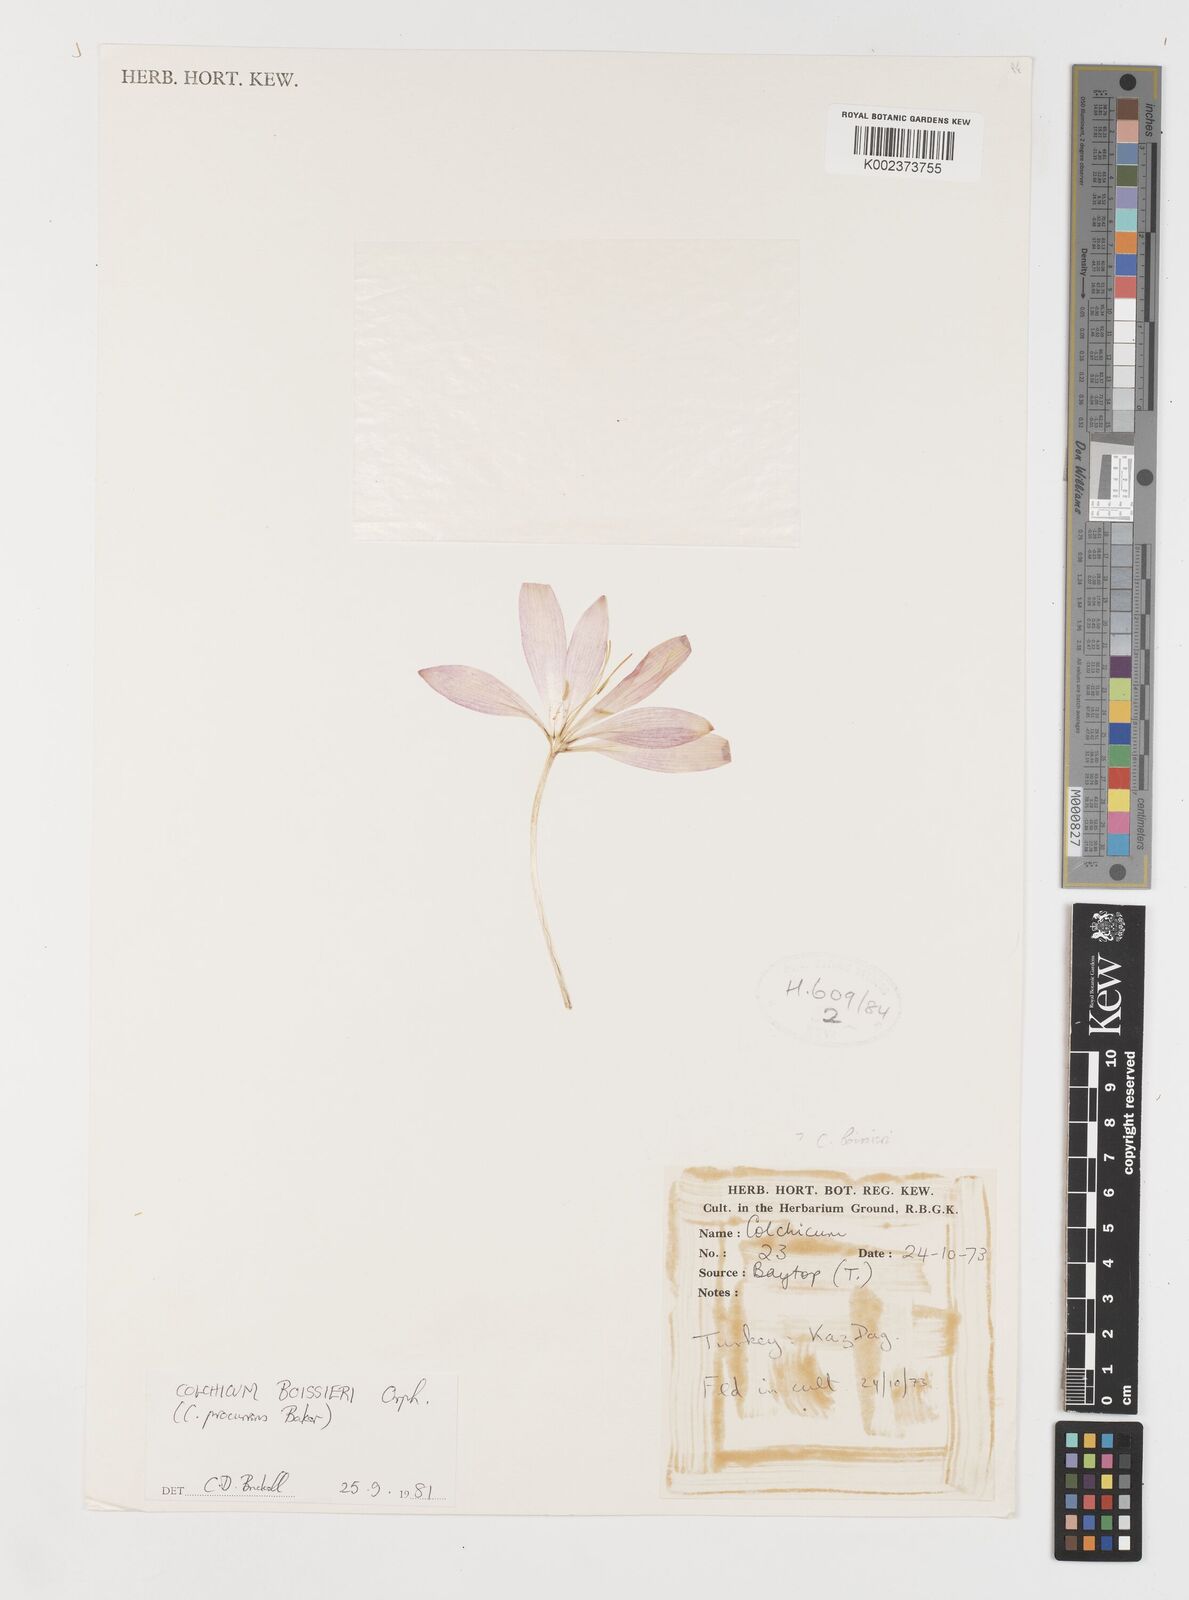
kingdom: Plantae
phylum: Tracheophyta
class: Liliopsida
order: Liliales
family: Colchicaceae
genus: Colchicum
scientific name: Colchicum boissieri
